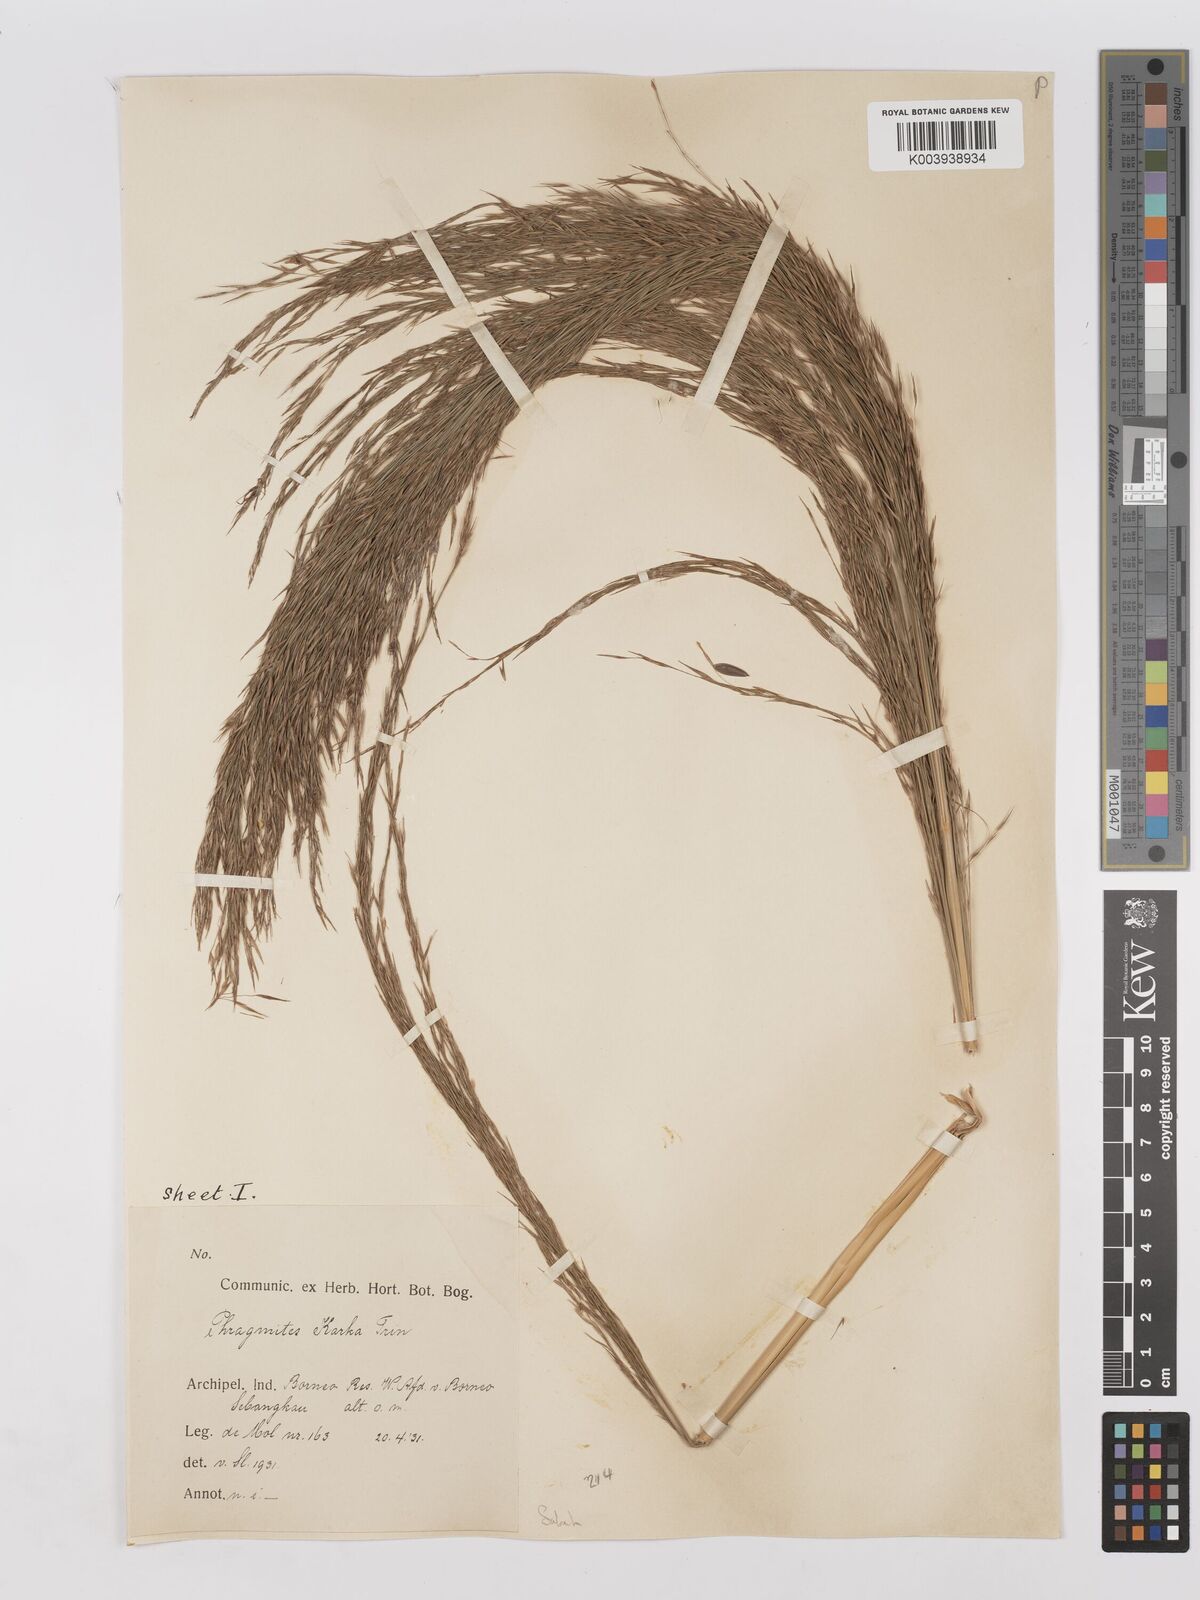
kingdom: Plantae
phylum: Tracheophyta
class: Liliopsida
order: Poales
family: Poaceae
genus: Phragmites
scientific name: Phragmites karka
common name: Tropical reed
